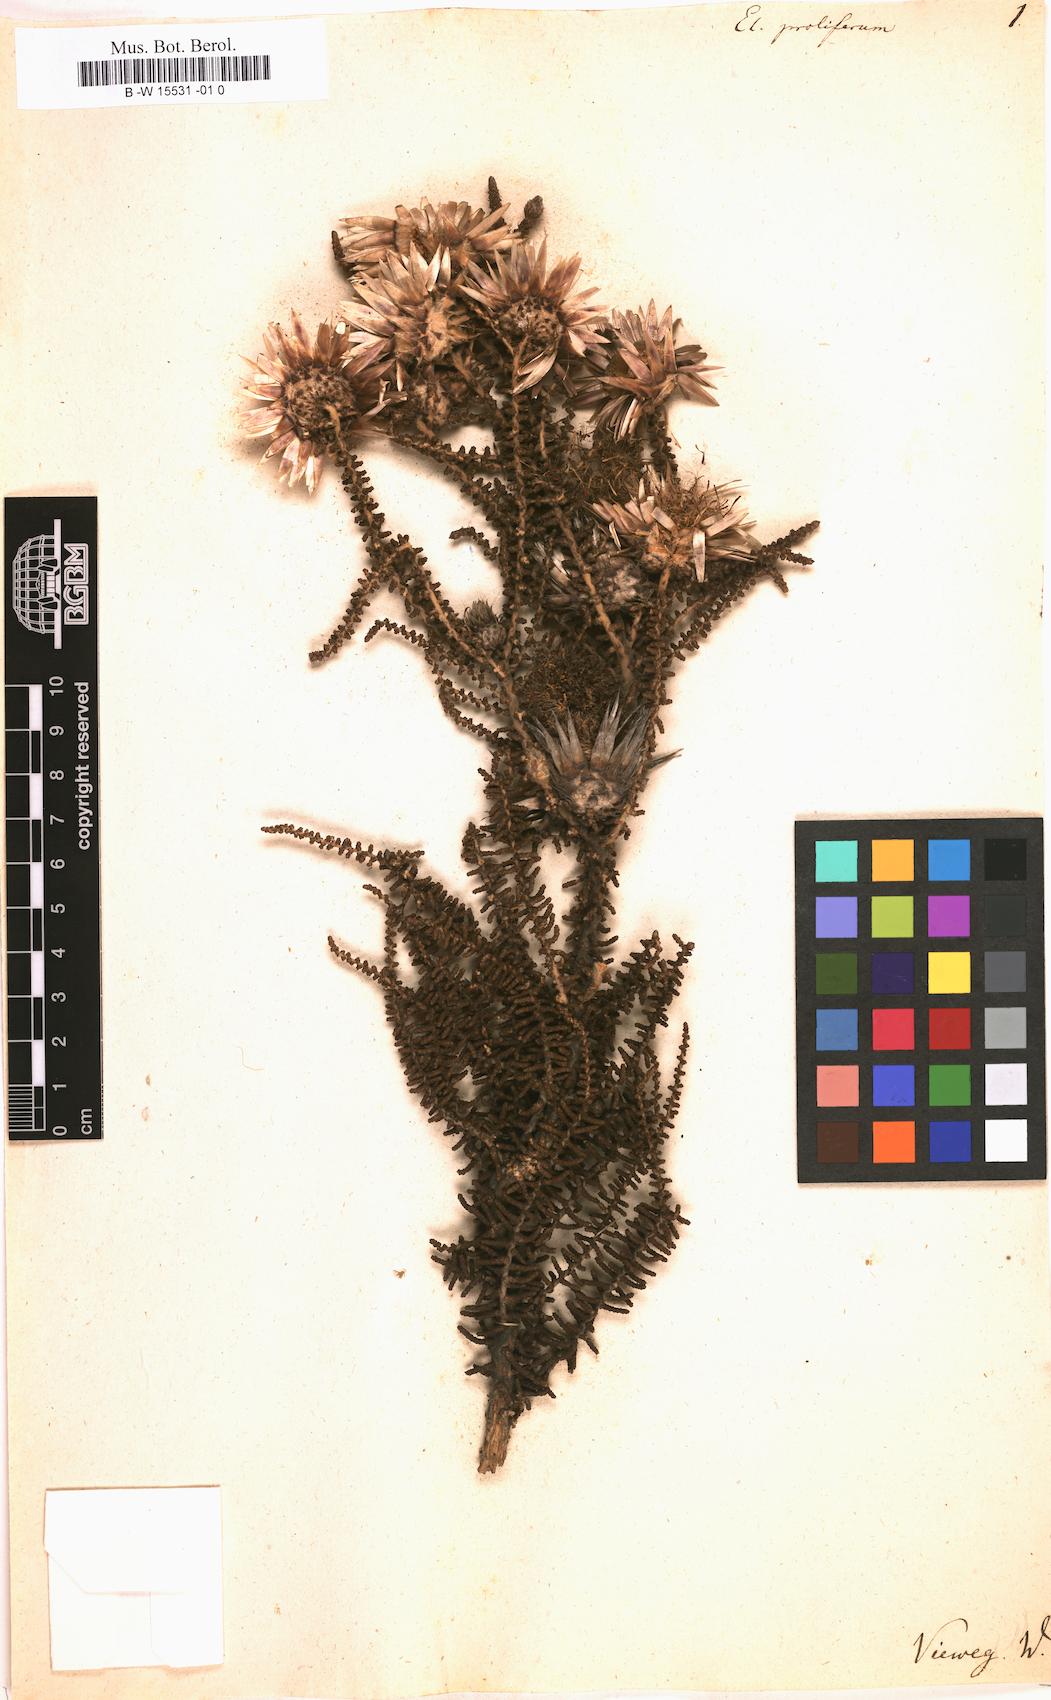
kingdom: Plantae
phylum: Tracheophyta
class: Magnoliopsida
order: Asterales
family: Asteraceae
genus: Helichrysum
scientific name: Helichrysum
